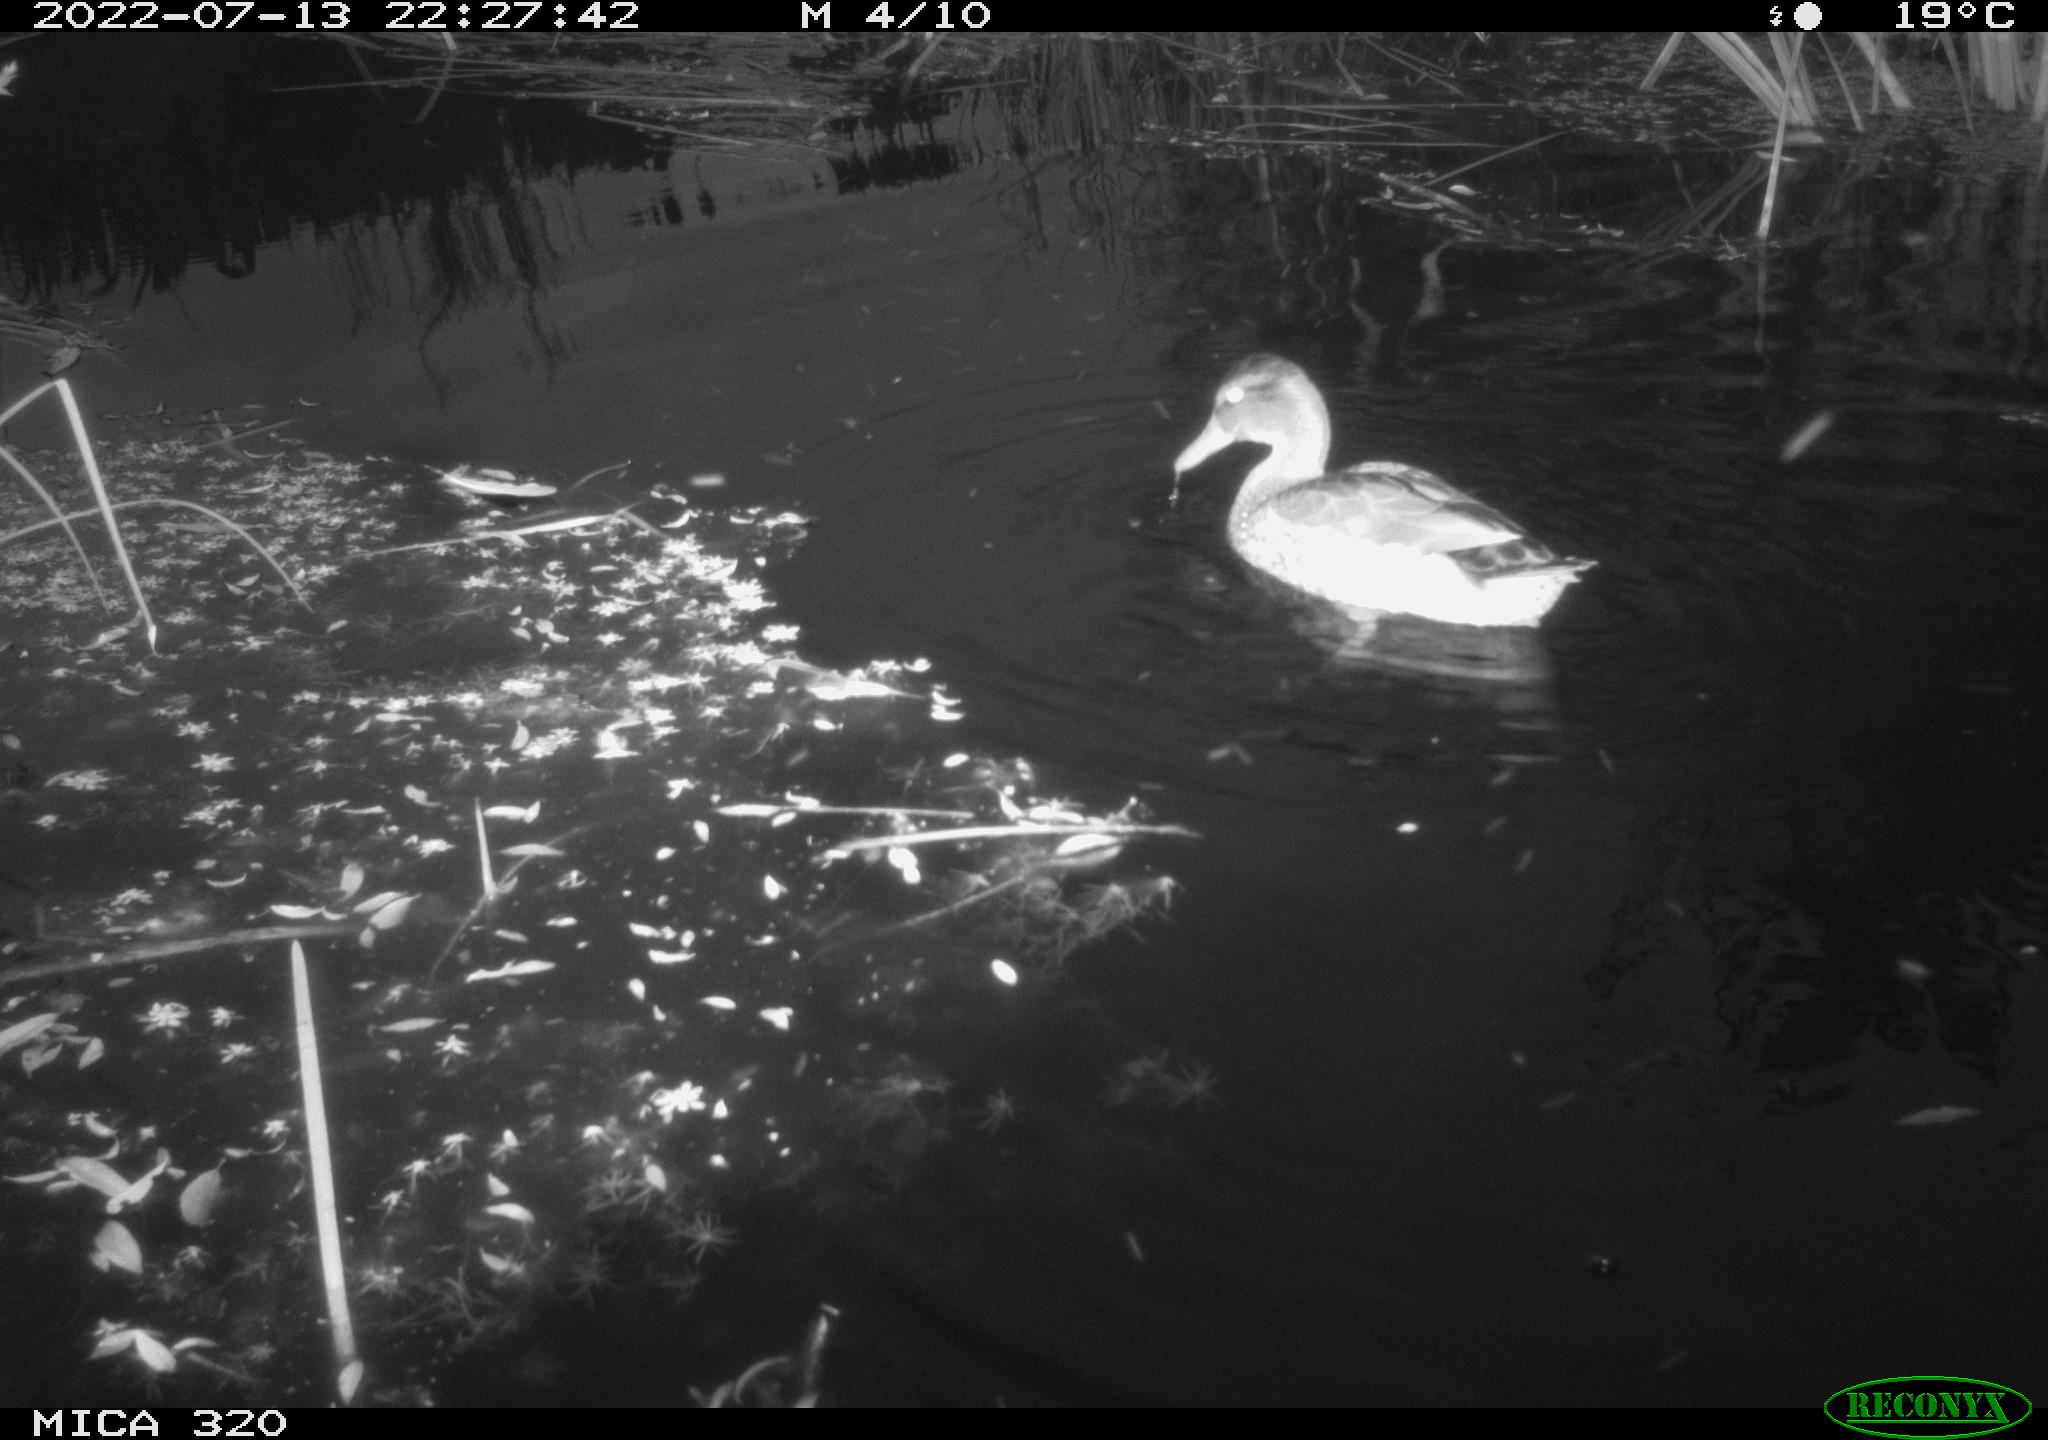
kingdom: Animalia
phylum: Chordata
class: Aves
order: Anseriformes
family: Anatidae
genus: Anas
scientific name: Anas platyrhynchos
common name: Mallard
